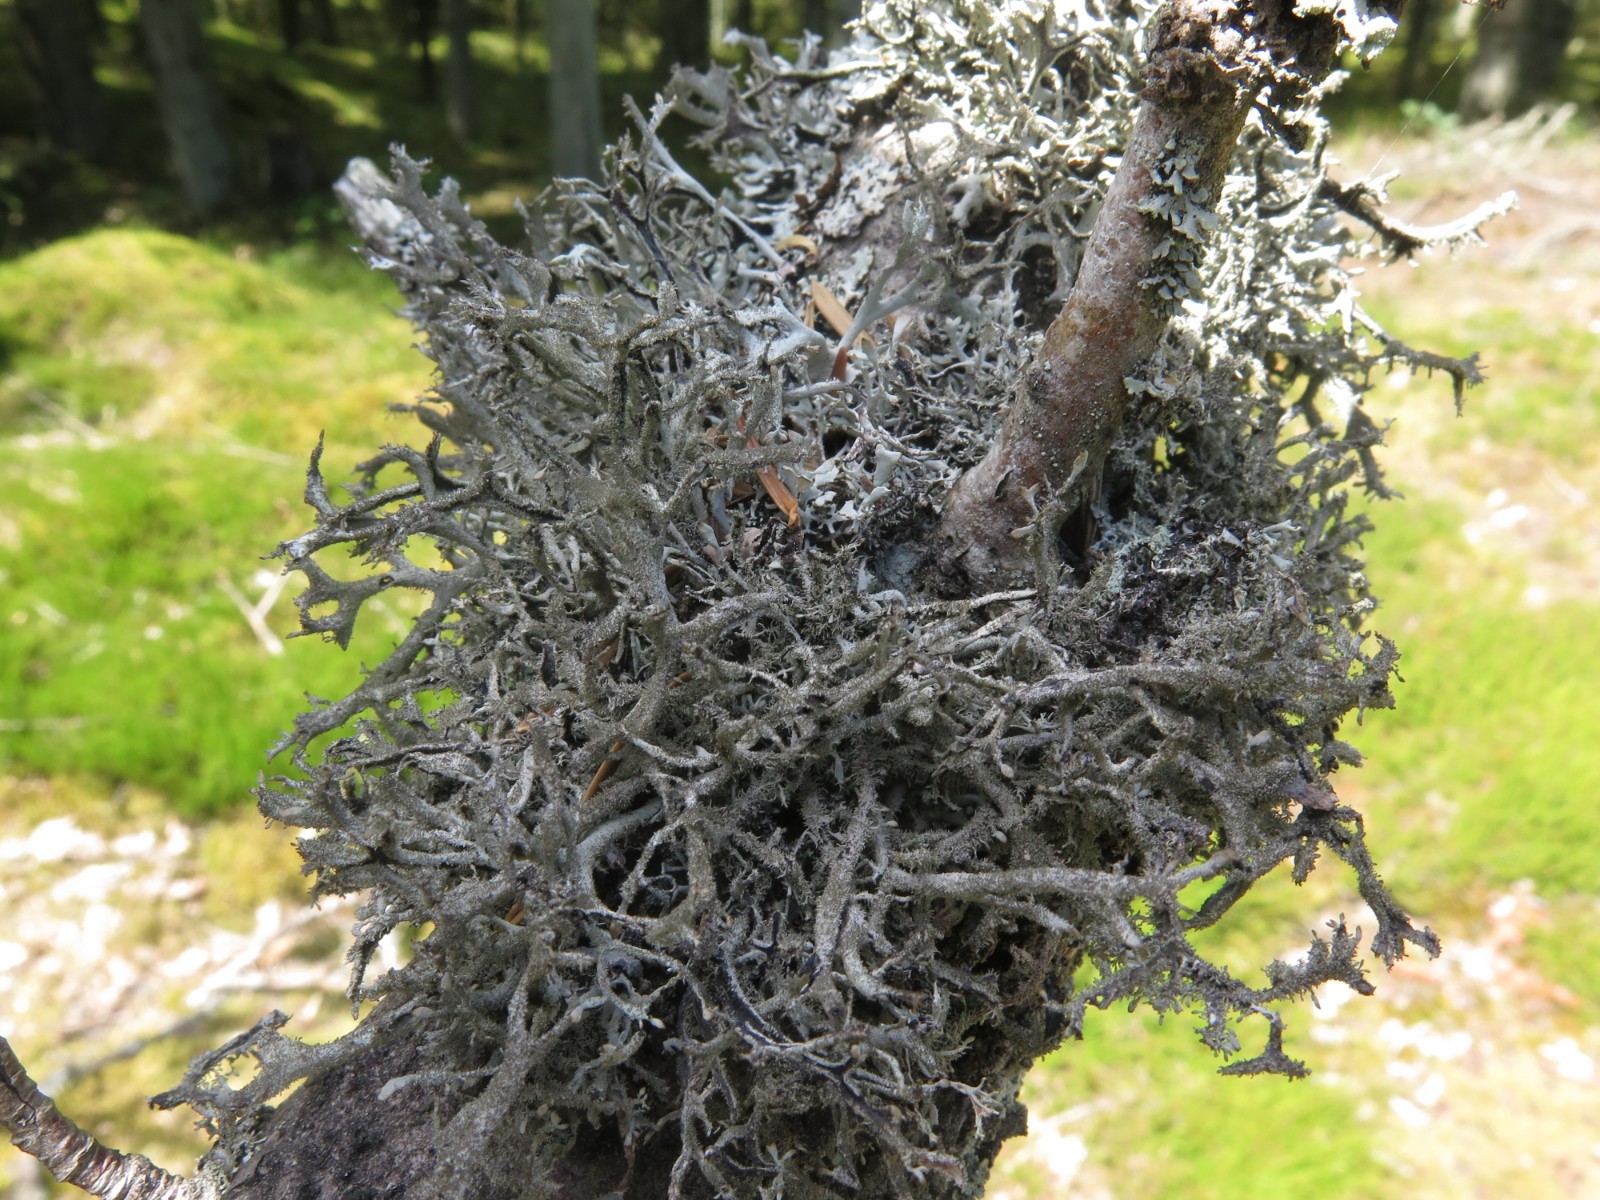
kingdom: Fungi
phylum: Ascomycota
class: Lecanoromycetes
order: Lecanorales
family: Parmeliaceae
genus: Pseudevernia
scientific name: Pseudevernia furfuracea
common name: grå fyrrelav
